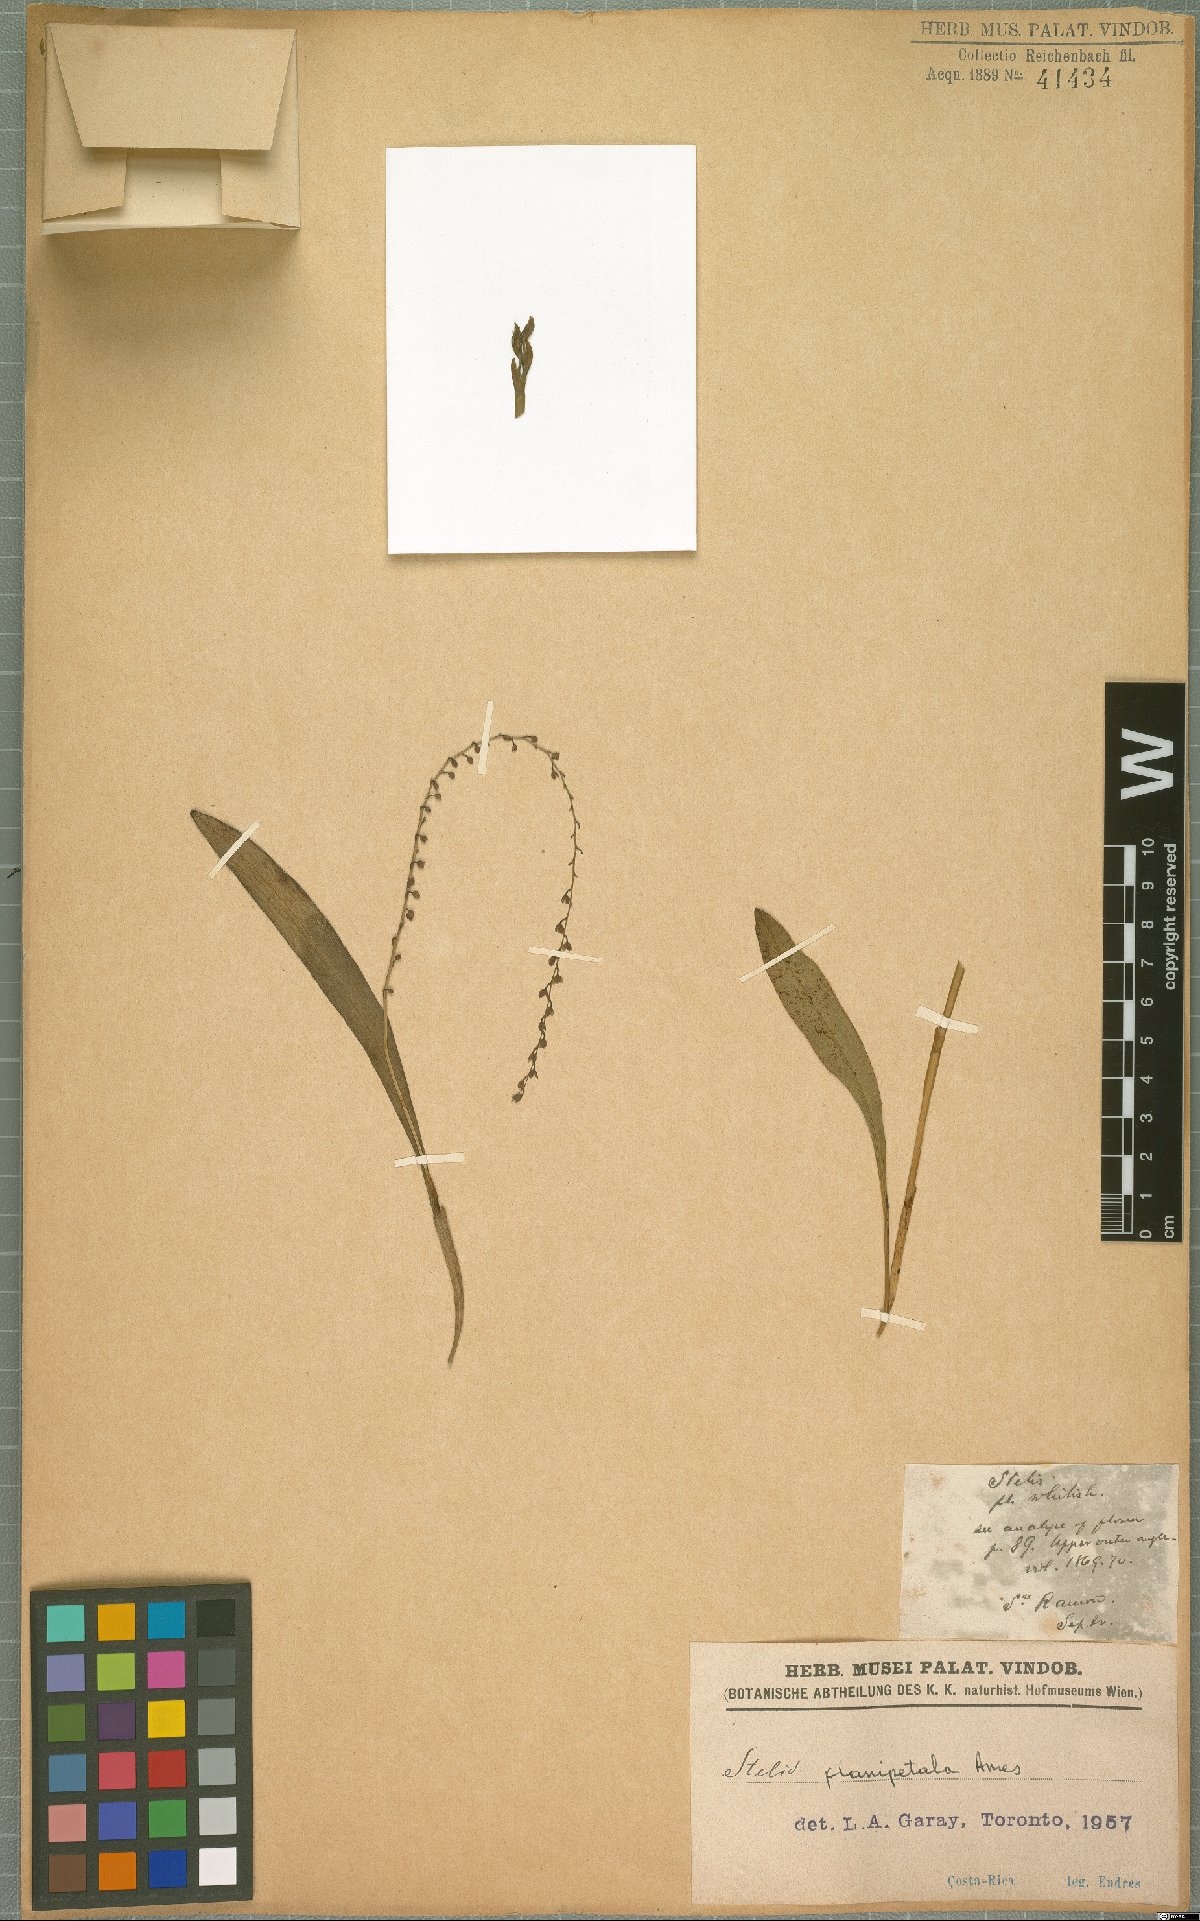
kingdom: Plantae
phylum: Tracheophyta
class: Liliopsida
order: Asparagales
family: Orchidaceae
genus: Stelis
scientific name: Stelis planipetala
